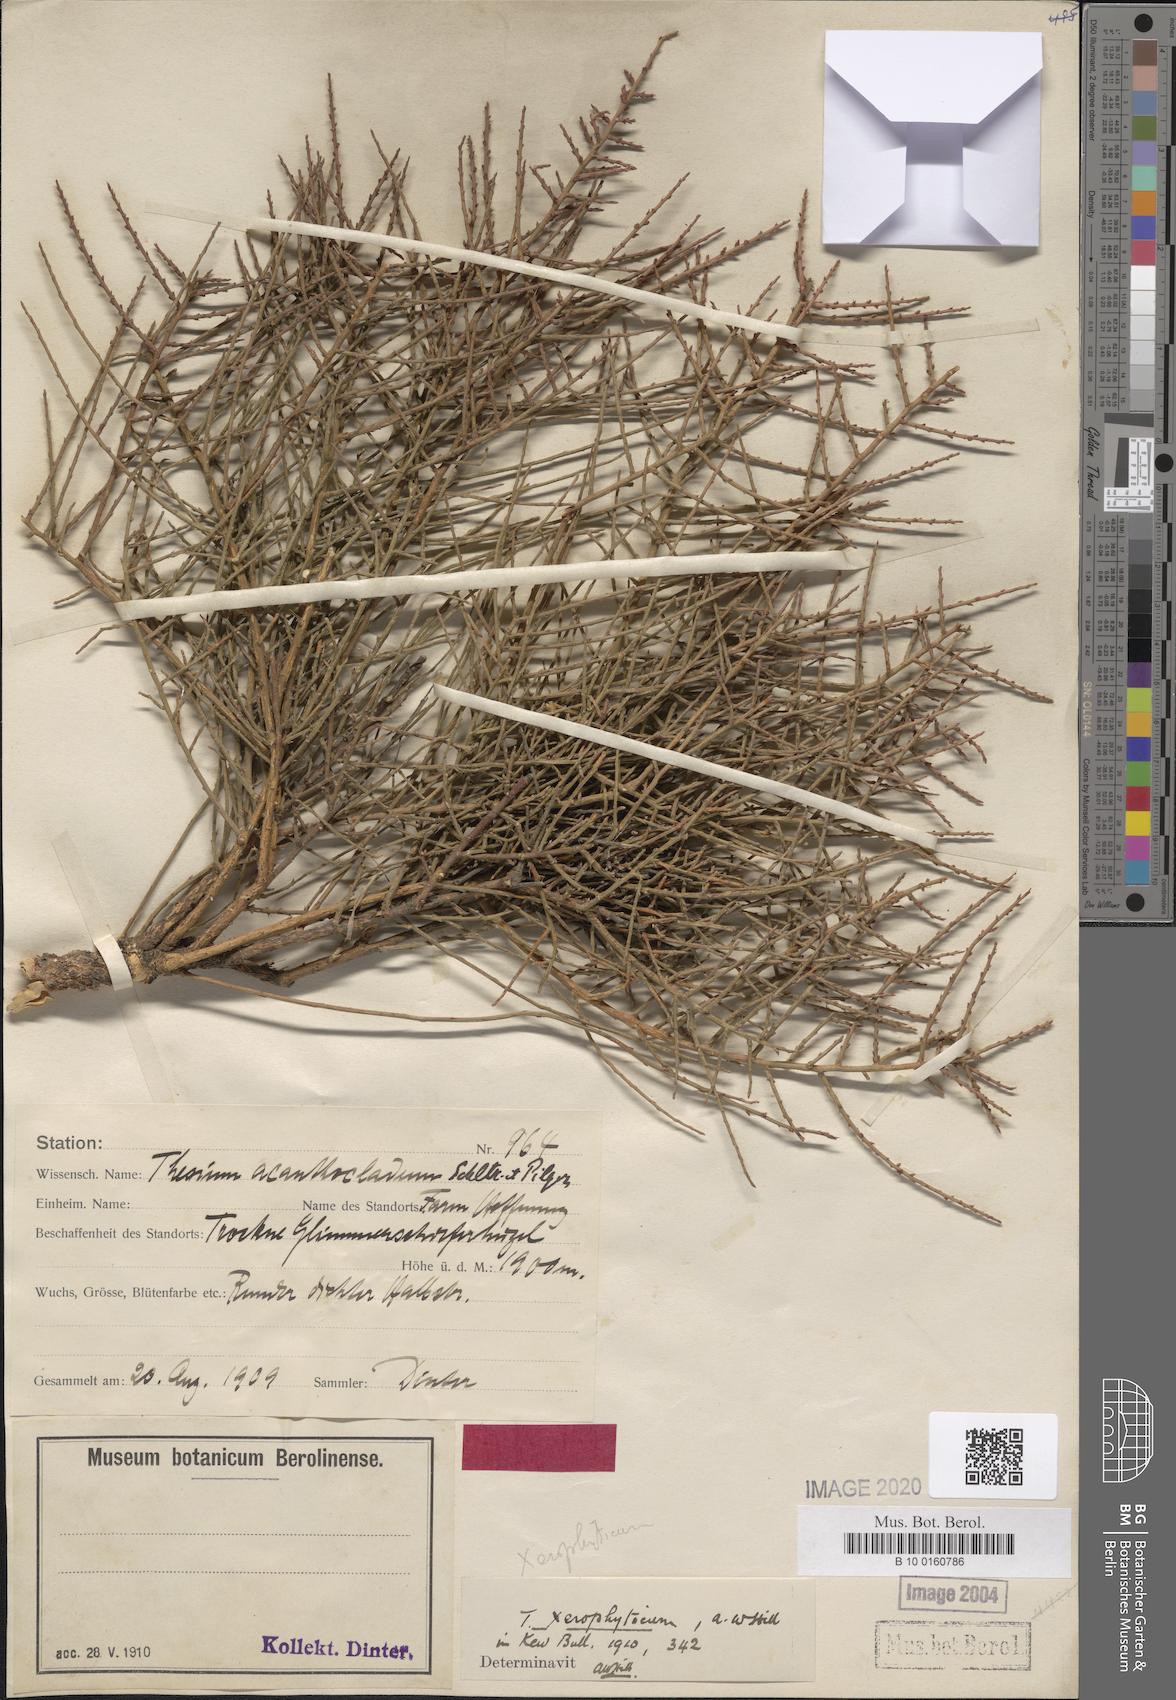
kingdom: Plantae
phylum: Tracheophyta
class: Magnoliopsida
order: Santalales
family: Thesiaceae
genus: Thesium
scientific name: Thesium xerophyticum
